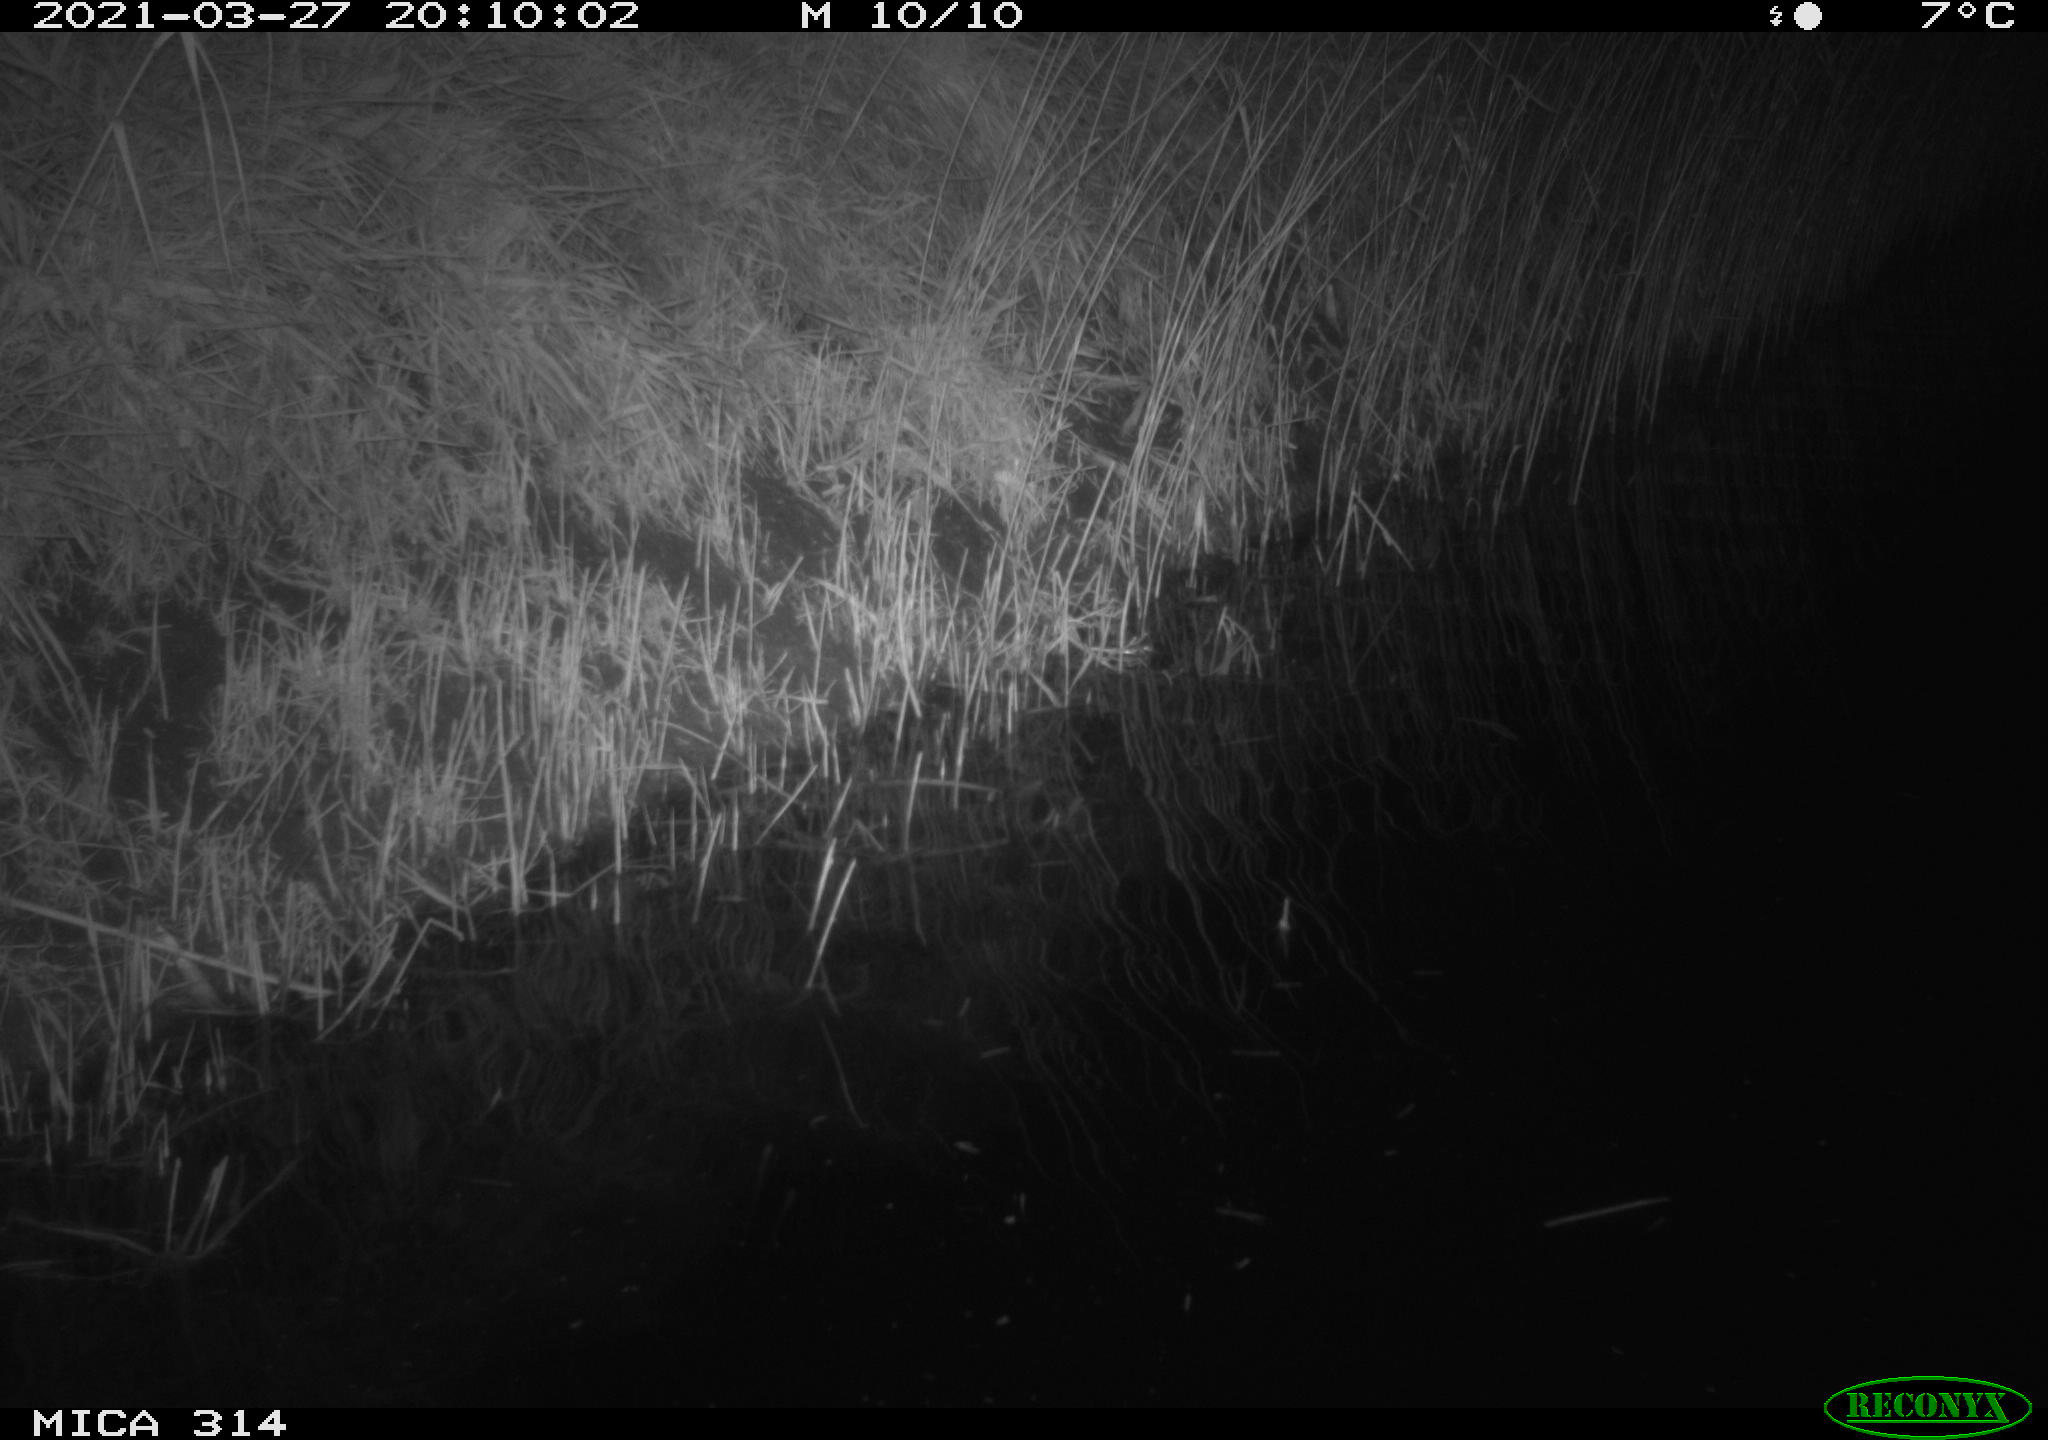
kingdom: Animalia
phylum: Chordata
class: Aves
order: Gruiformes
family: Rallidae
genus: Fulica
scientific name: Fulica atra
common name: Eurasian coot
